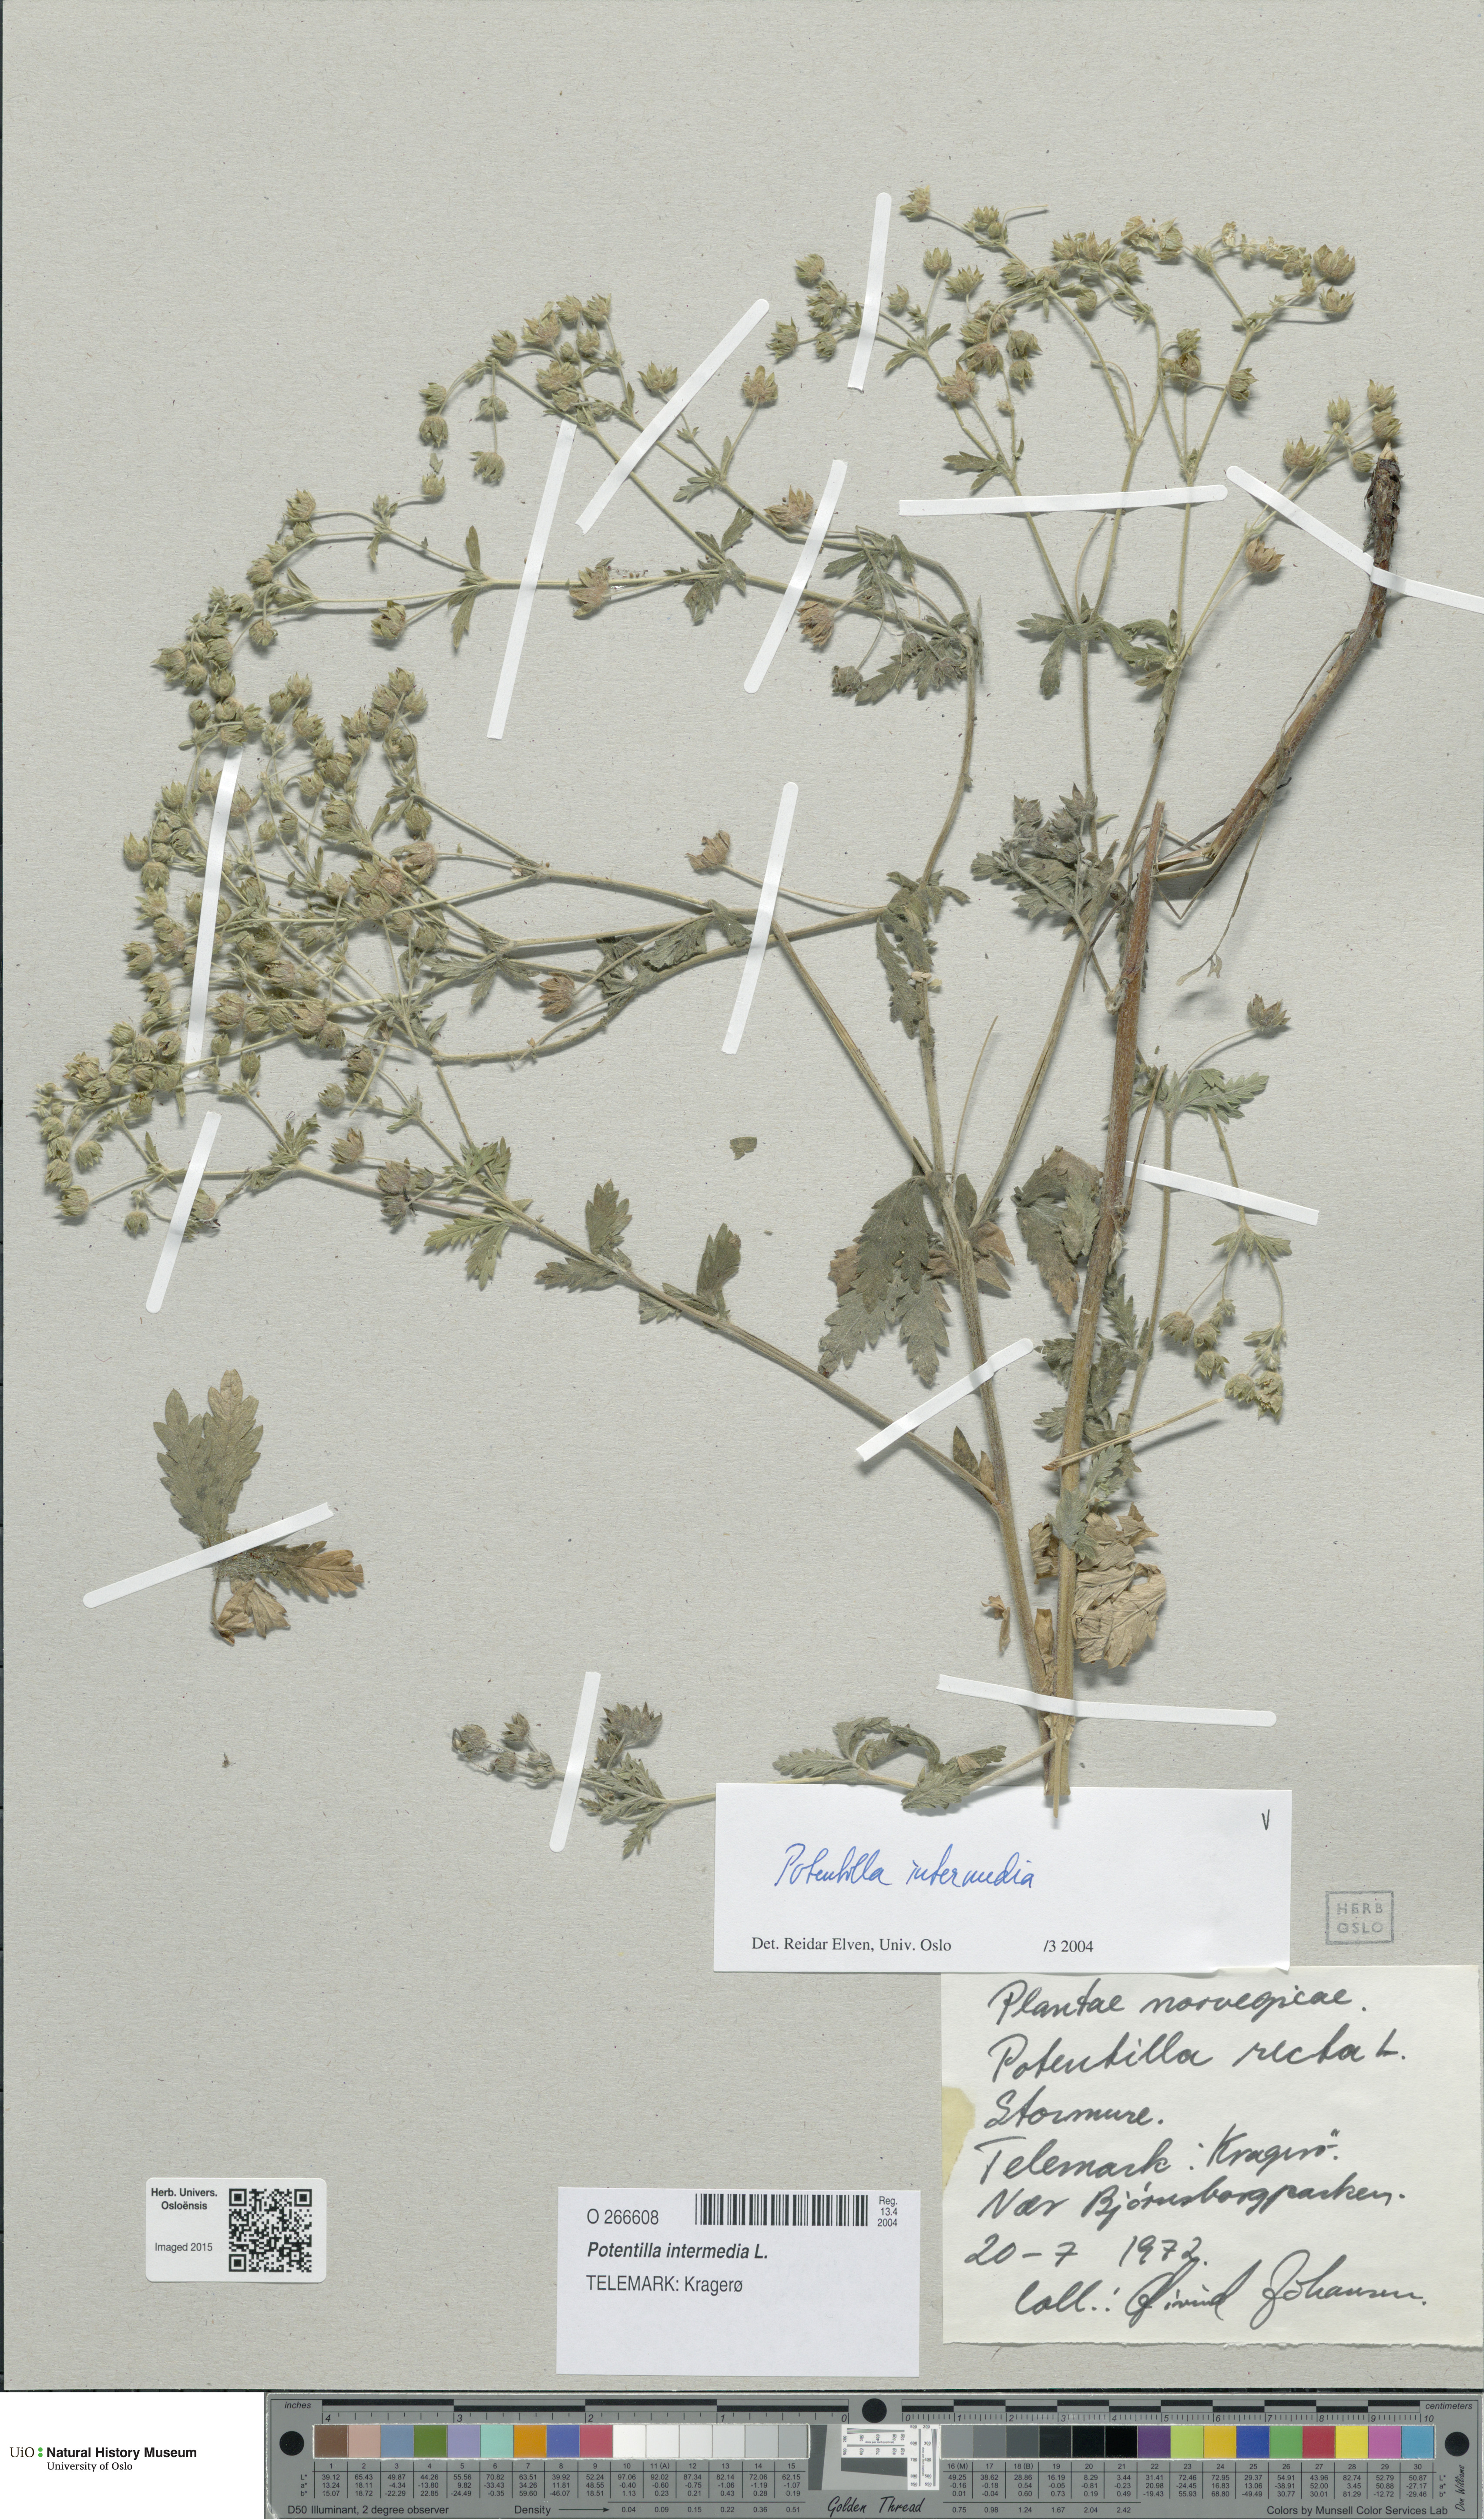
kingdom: Plantae
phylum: Tracheophyta
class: Magnoliopsida
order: Rosales
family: Rosaceae
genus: Potentilla
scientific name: Potentilla intermedia
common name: Downy cinquefoil
